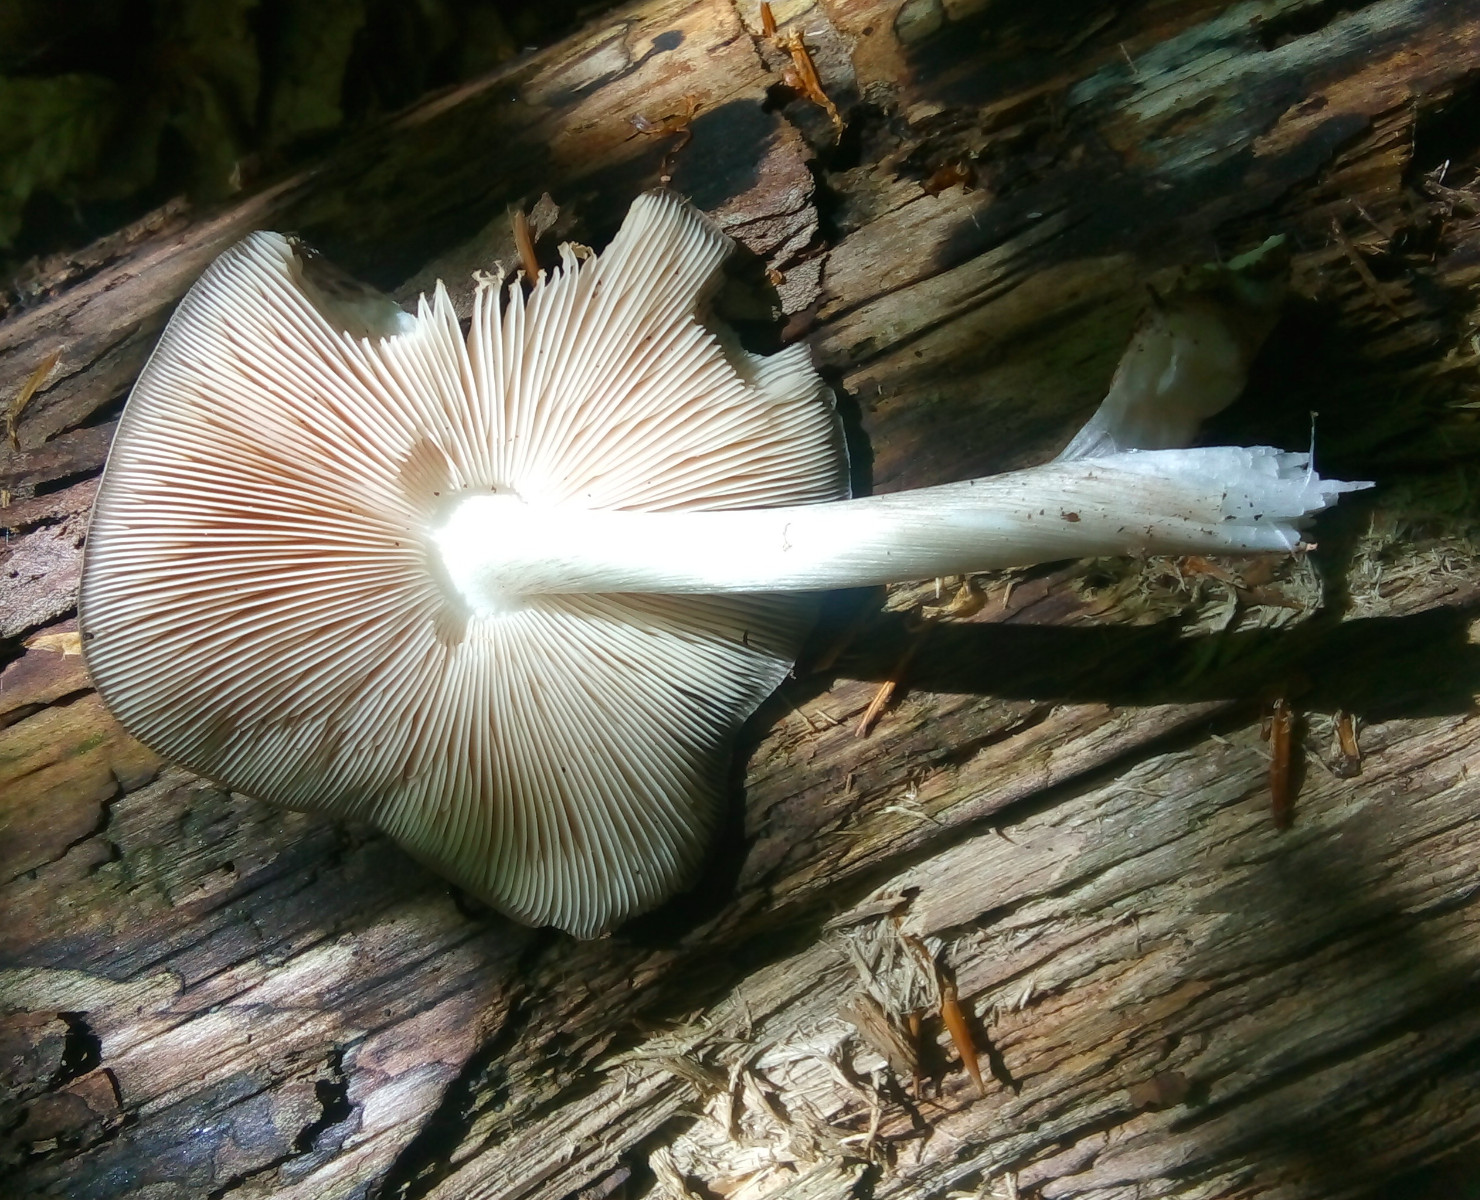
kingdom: Fungi
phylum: Basidiomycota
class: Agaricomycetes
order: Agaricales
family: Pluteaceae
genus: Pluteus
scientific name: Pluteus cervinus
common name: sodfarvet skærmhat
